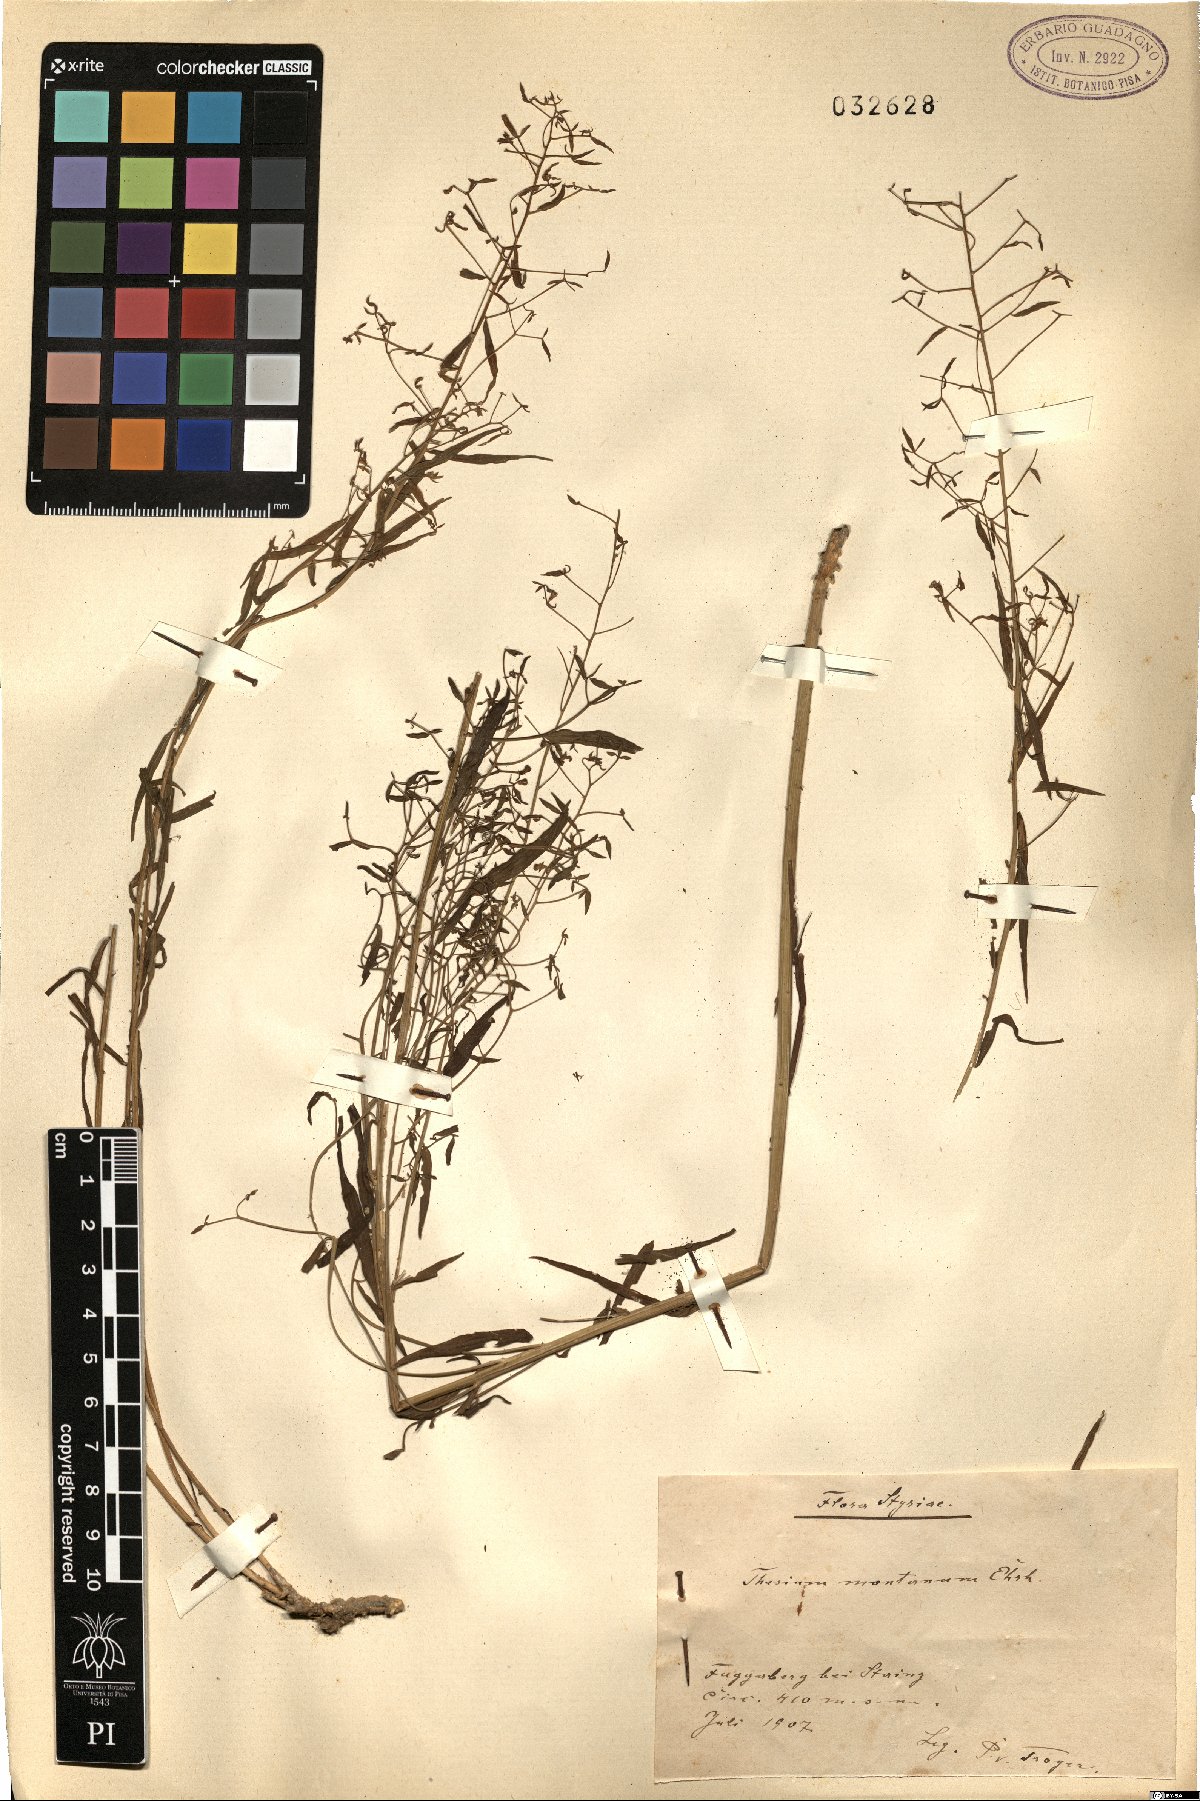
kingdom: Plantae
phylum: Tracheophyta
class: Magnoliopsida
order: Santalales
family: Thesiaceae
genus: Thesium
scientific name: Thesium bavarum
